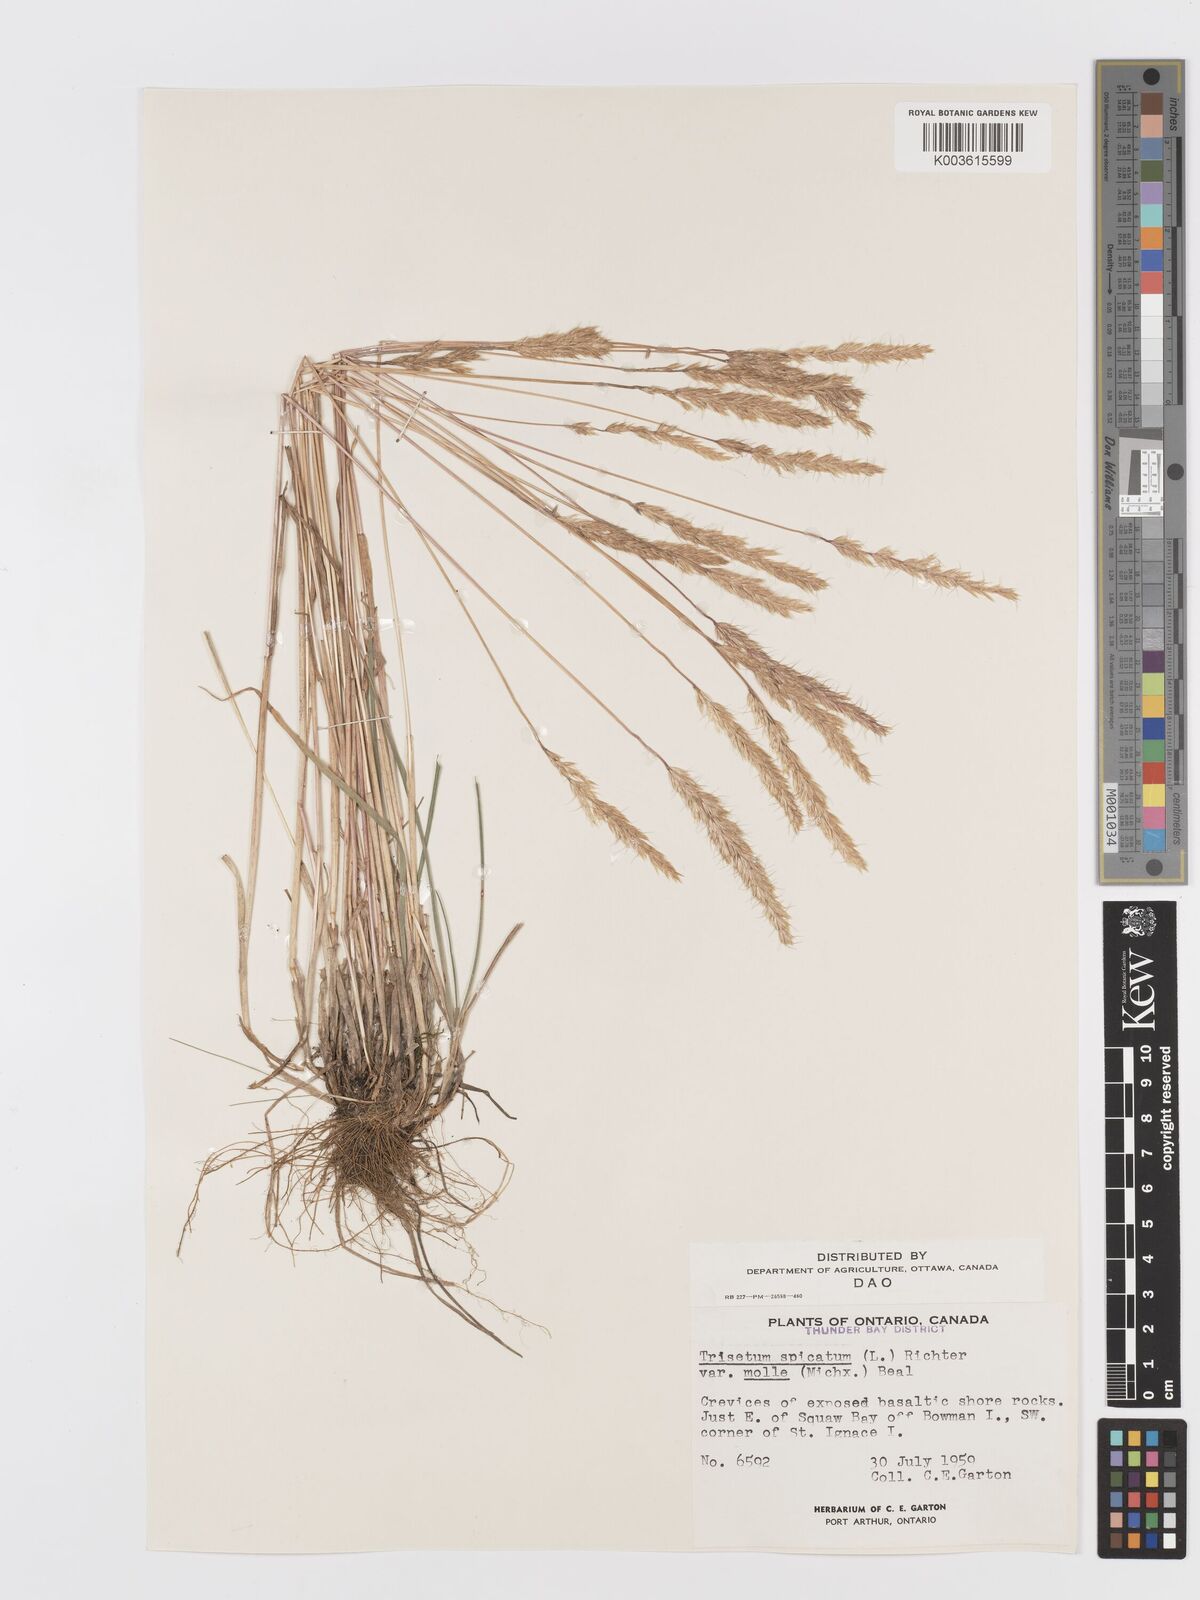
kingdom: Plantae
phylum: Tracheophyta
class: Liliopsida
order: Poales
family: Poaceae
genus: Koeleria
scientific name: Koeleria spicata
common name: Mountain trisetum
